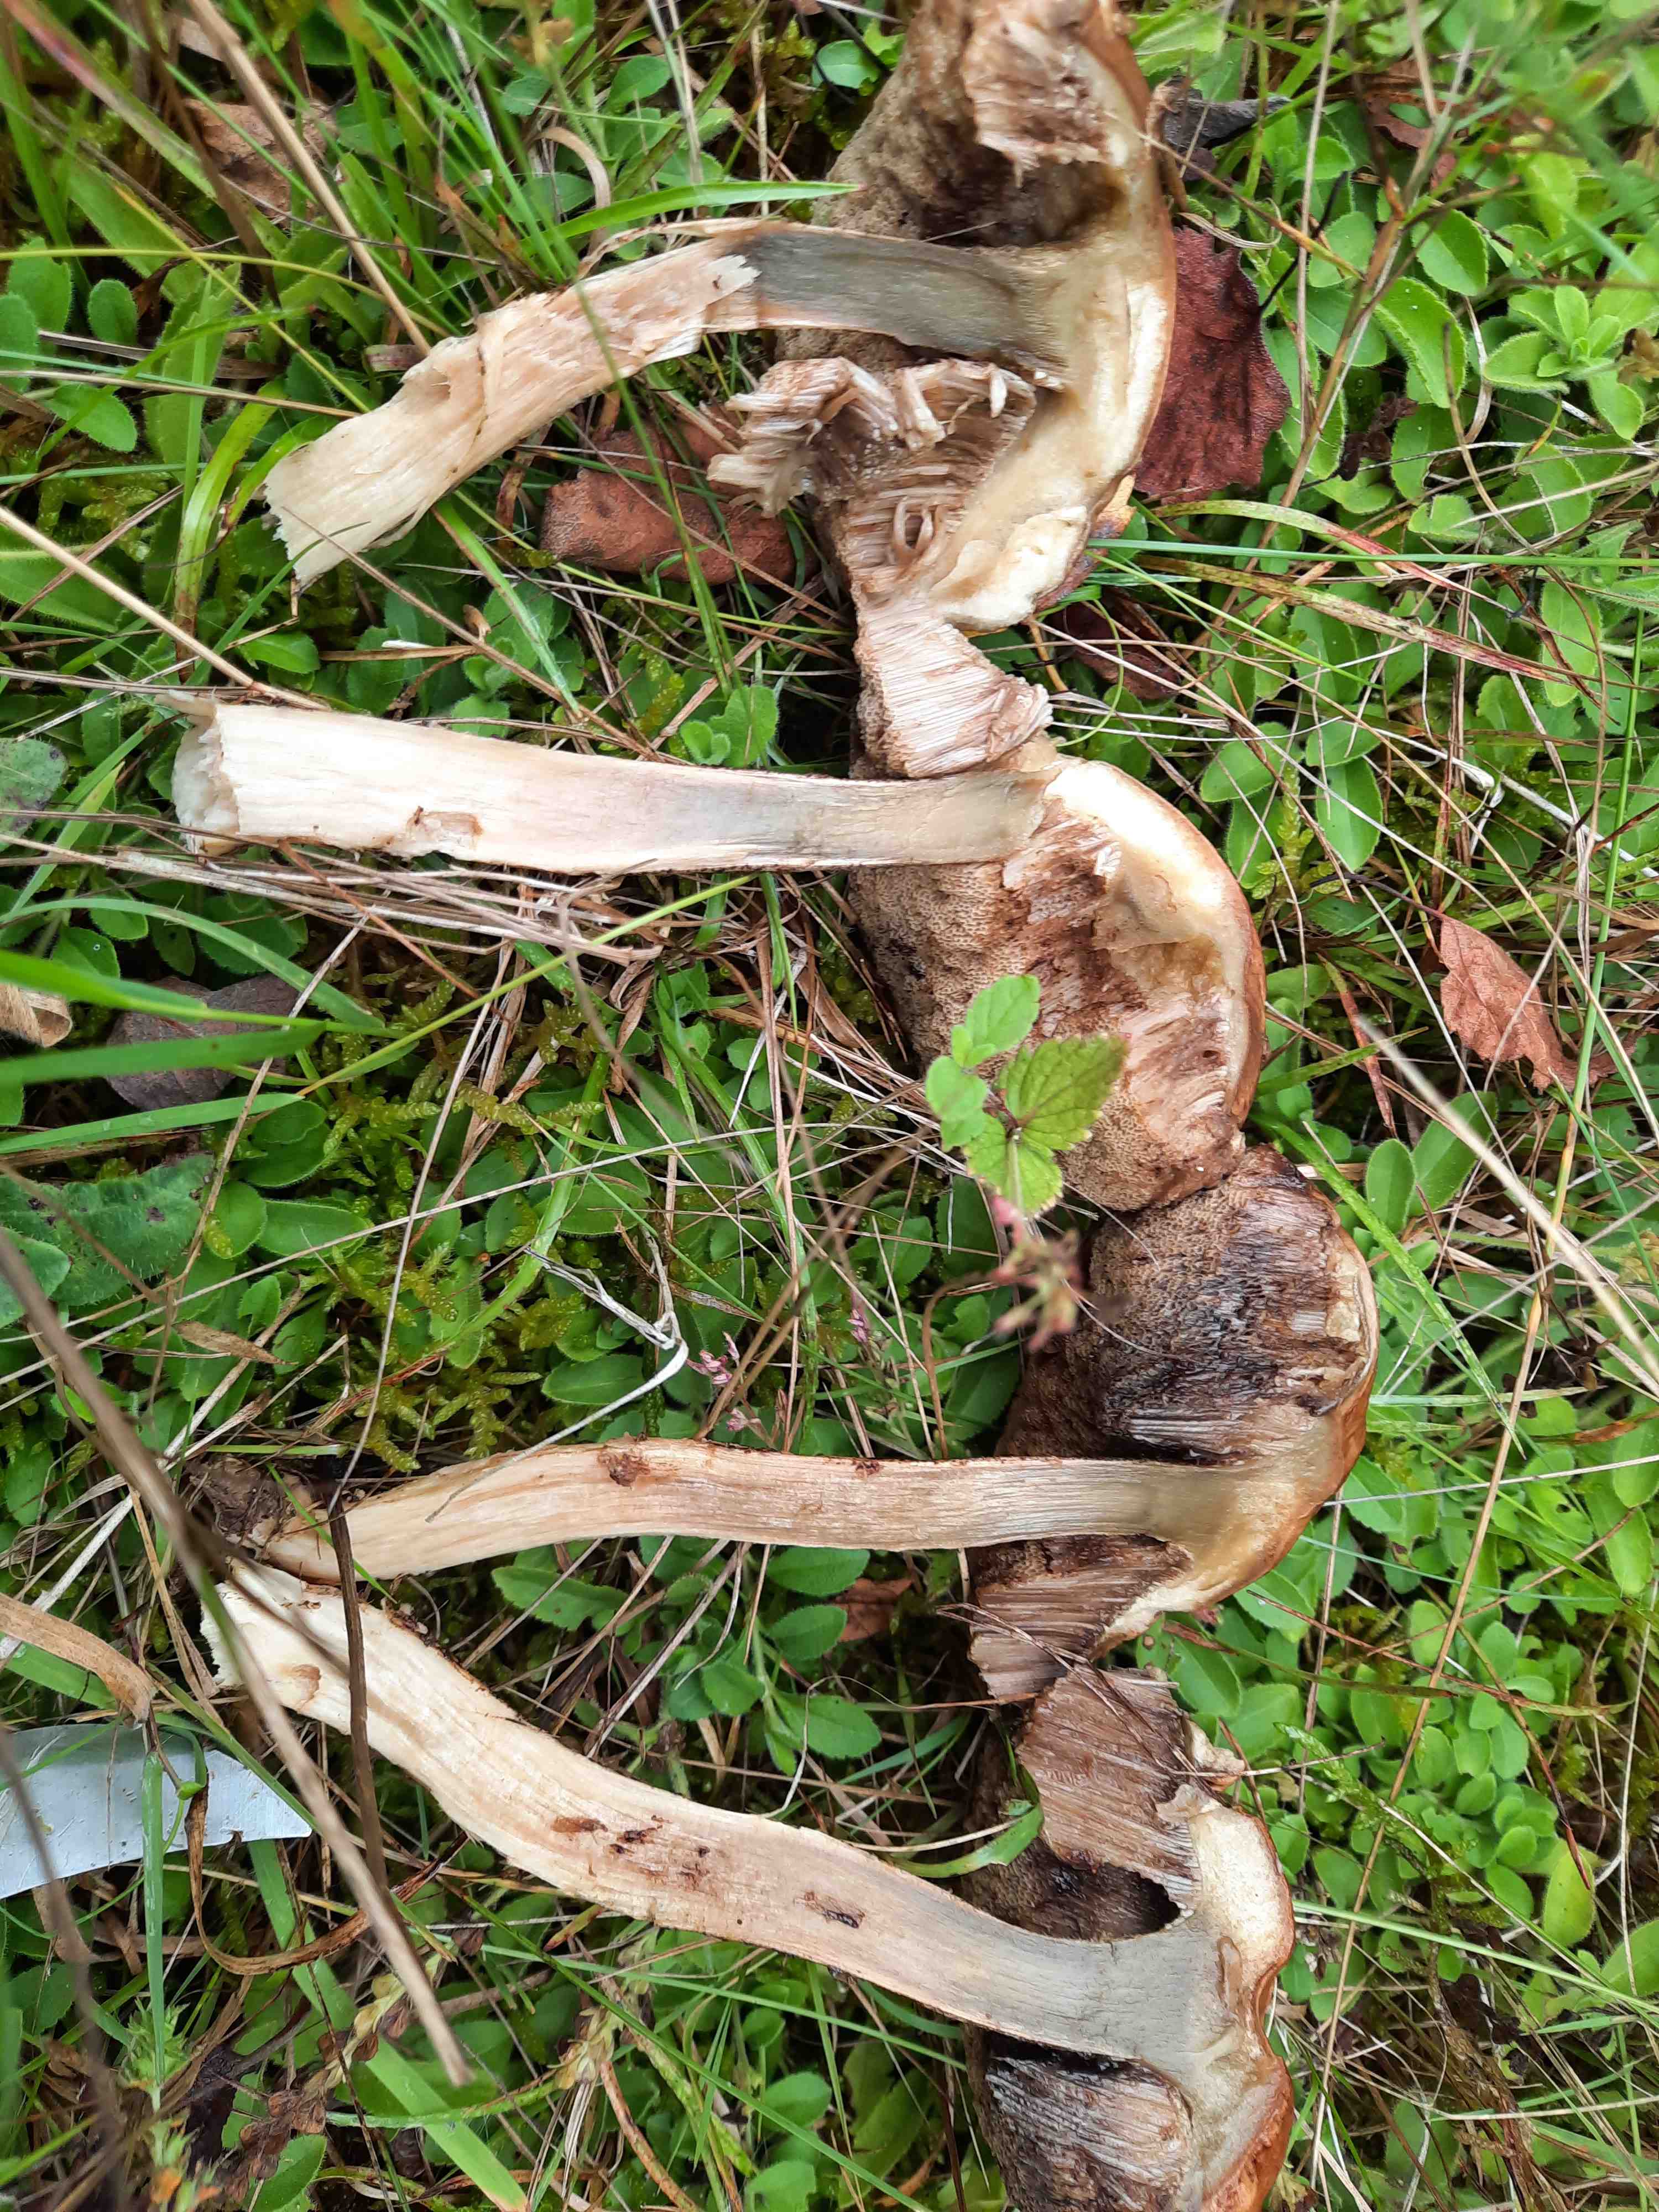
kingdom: Fungi
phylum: Basidiomycota
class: Agaricomycetes
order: Boletales
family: Boletaceae
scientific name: Boletaceae
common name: rørhatfamilien
